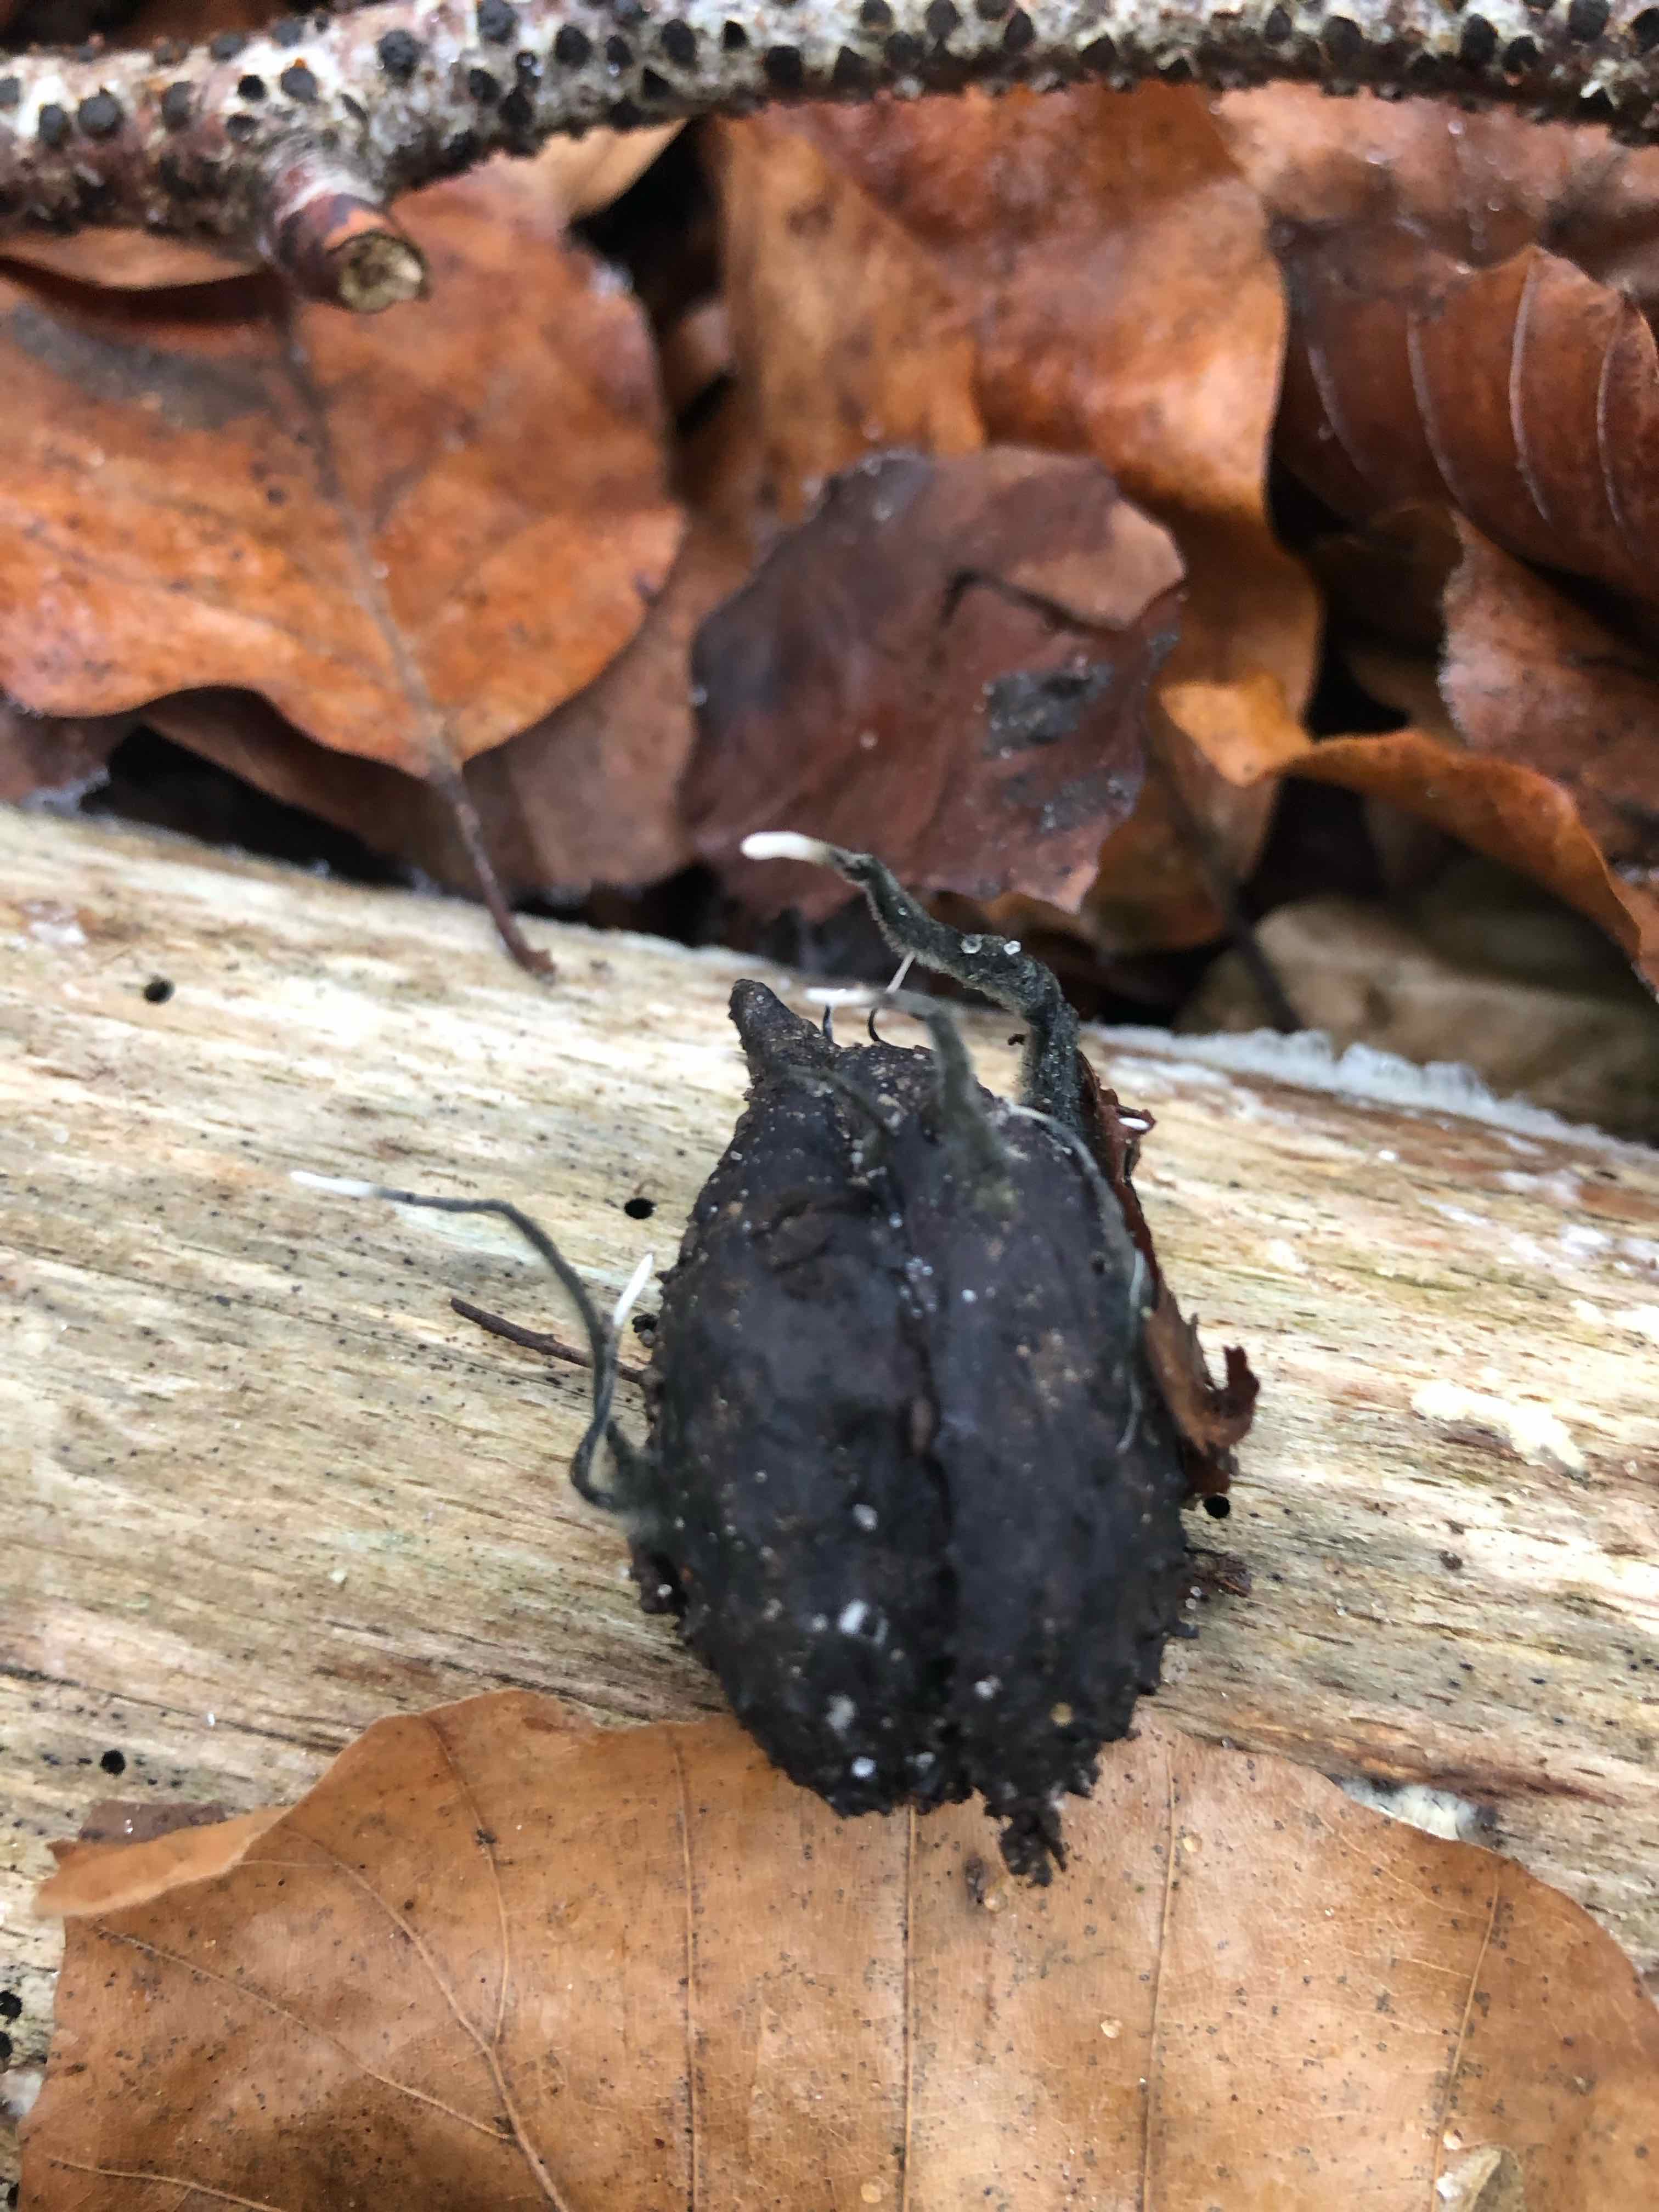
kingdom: Fungi
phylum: Ascomycota
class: Sordariomycetes
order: Xylariales
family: Xylariaceae
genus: Xylaria
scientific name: Xylaria carpophila
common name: bogskål-stødsvamp
